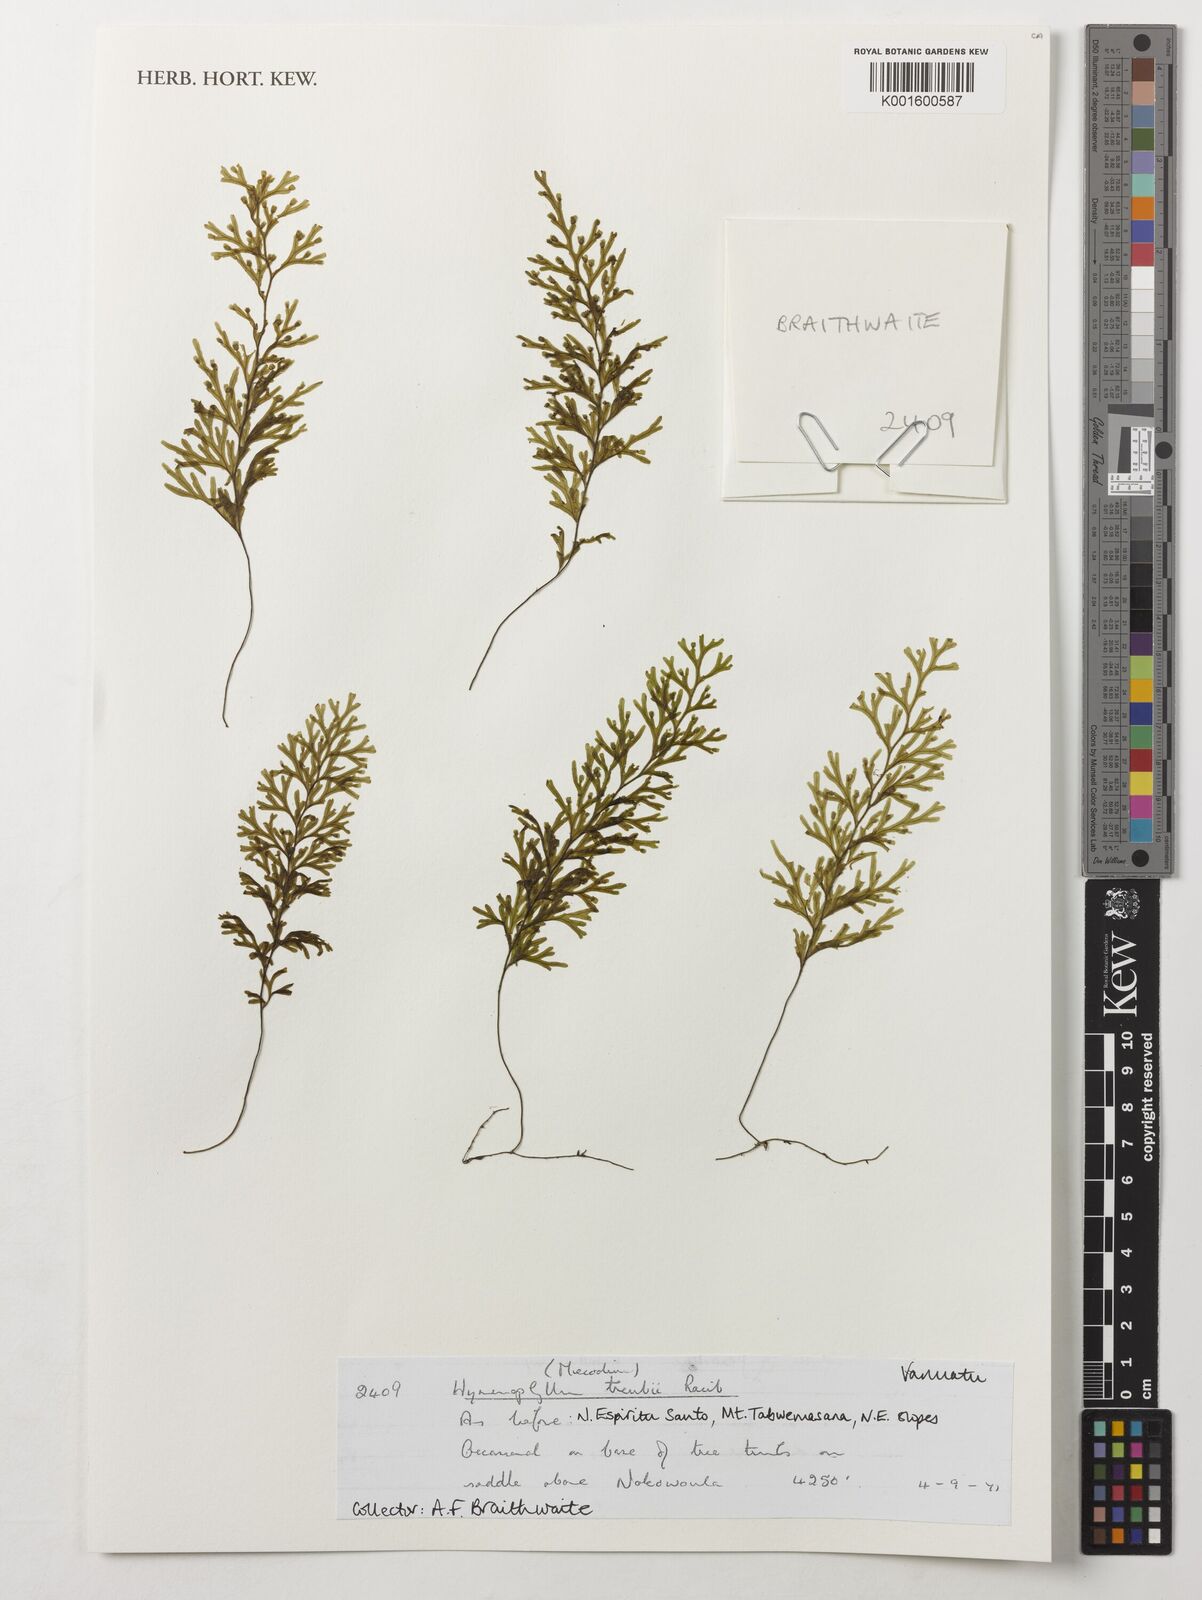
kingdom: Plantae
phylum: Tracheophyta
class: Polypodiopsida
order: Hymenophyllales
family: Hymenophyllaceae
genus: Hymenophyllum
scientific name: Hymenophyllum treubii
